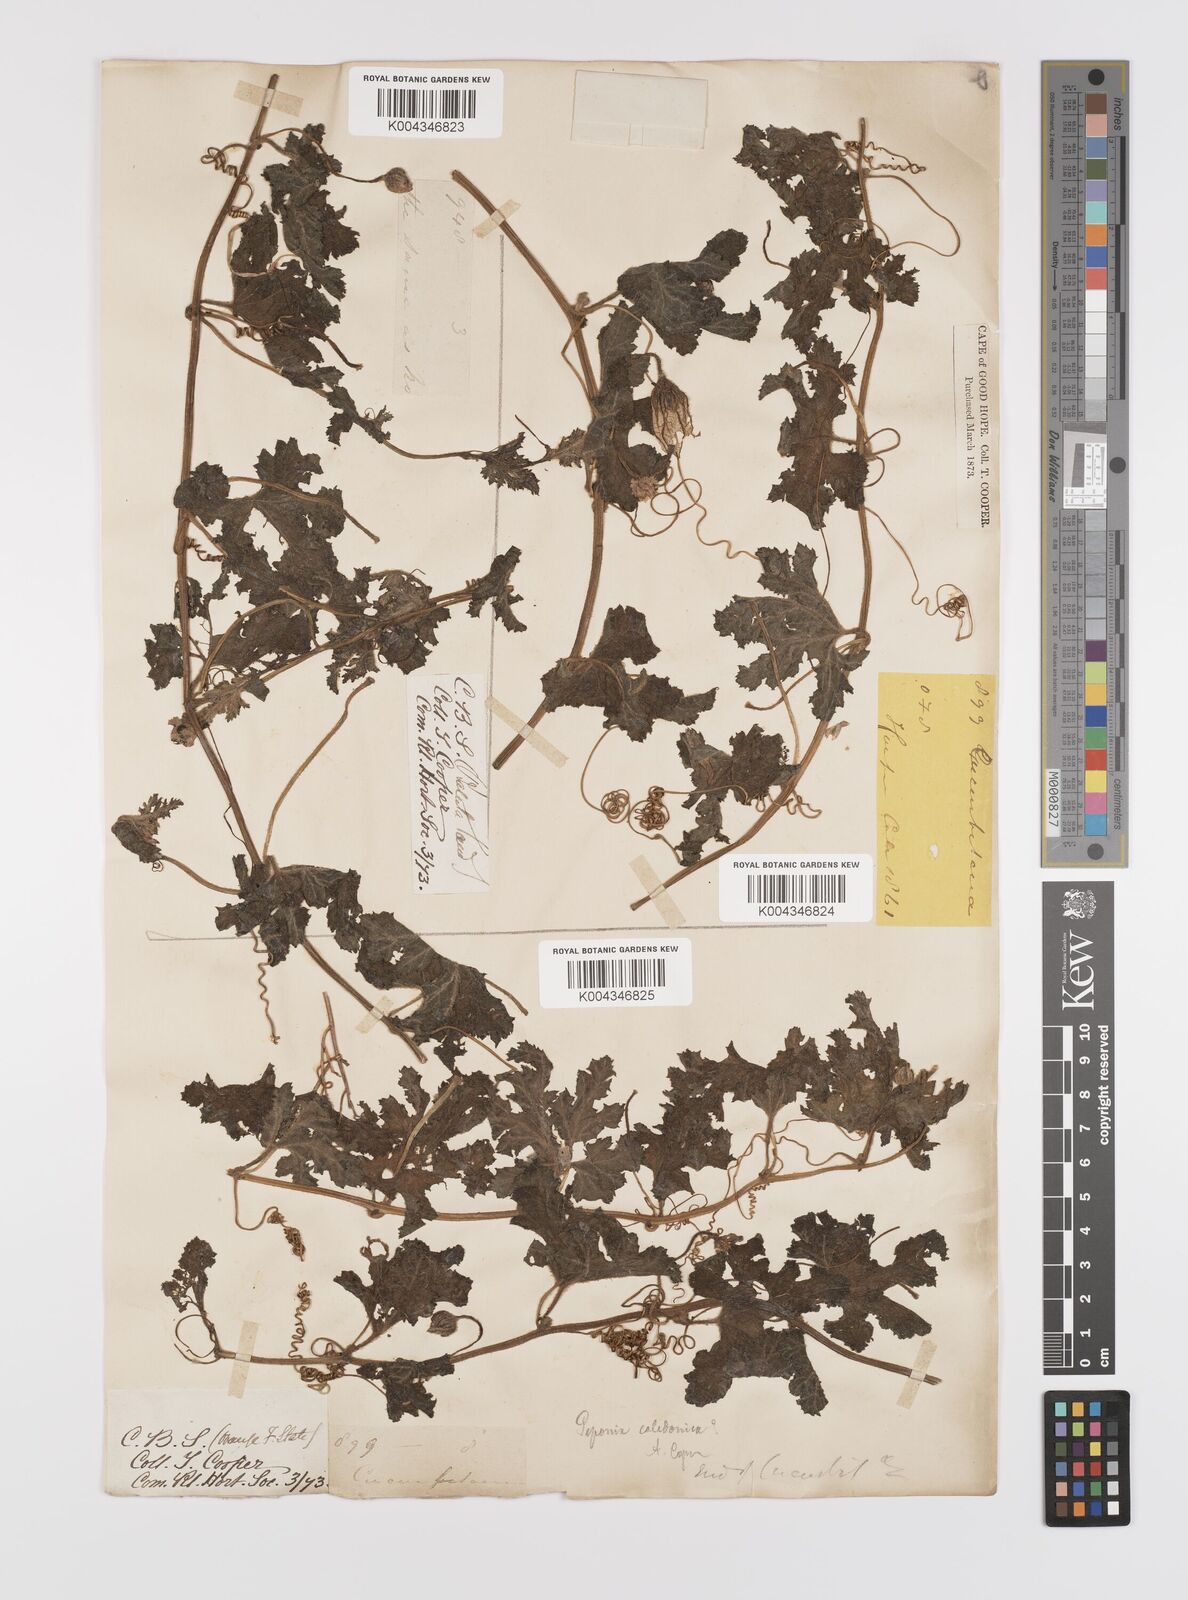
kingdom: Plantae
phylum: Tracheophyta
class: Magnoliopsida
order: Cucurbitales
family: Cucurbitaceae
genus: Coccinia
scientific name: Coccinia hirtella
